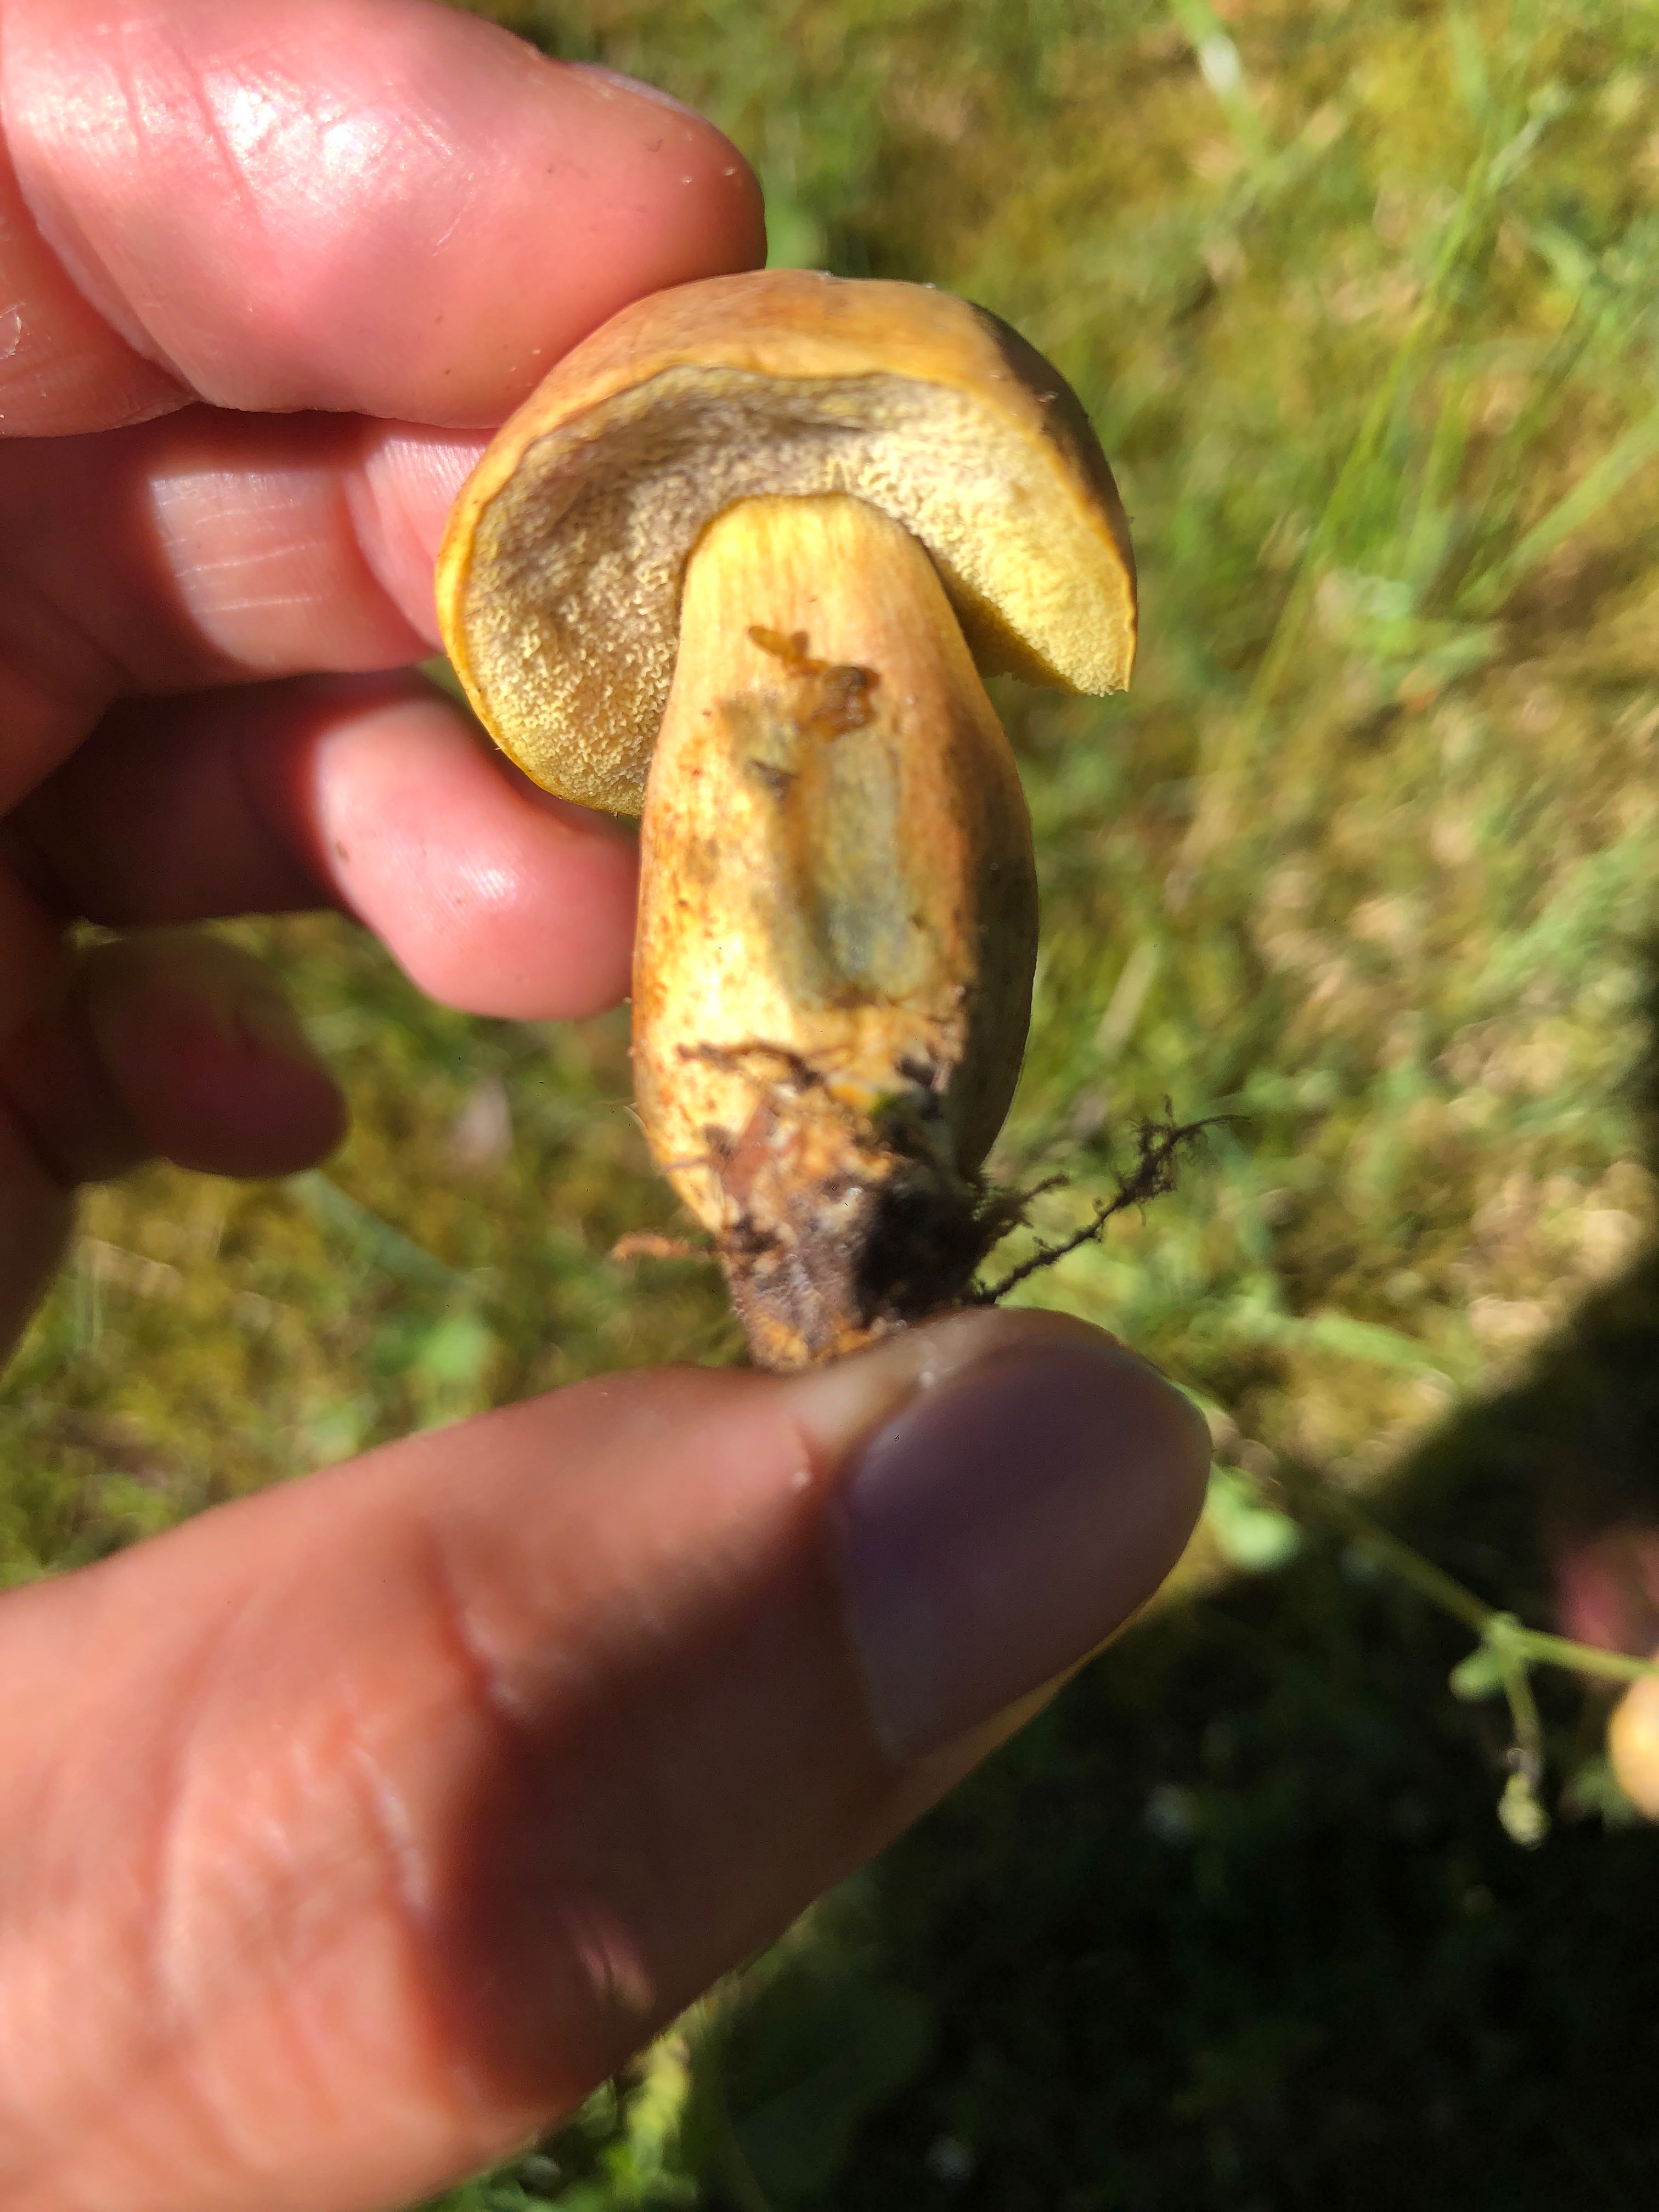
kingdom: Fungi
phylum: Basidiomycota
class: Agaricomycetes
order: Boletales
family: Boletaceae
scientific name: Boletaceae
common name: rørhatfamilien
